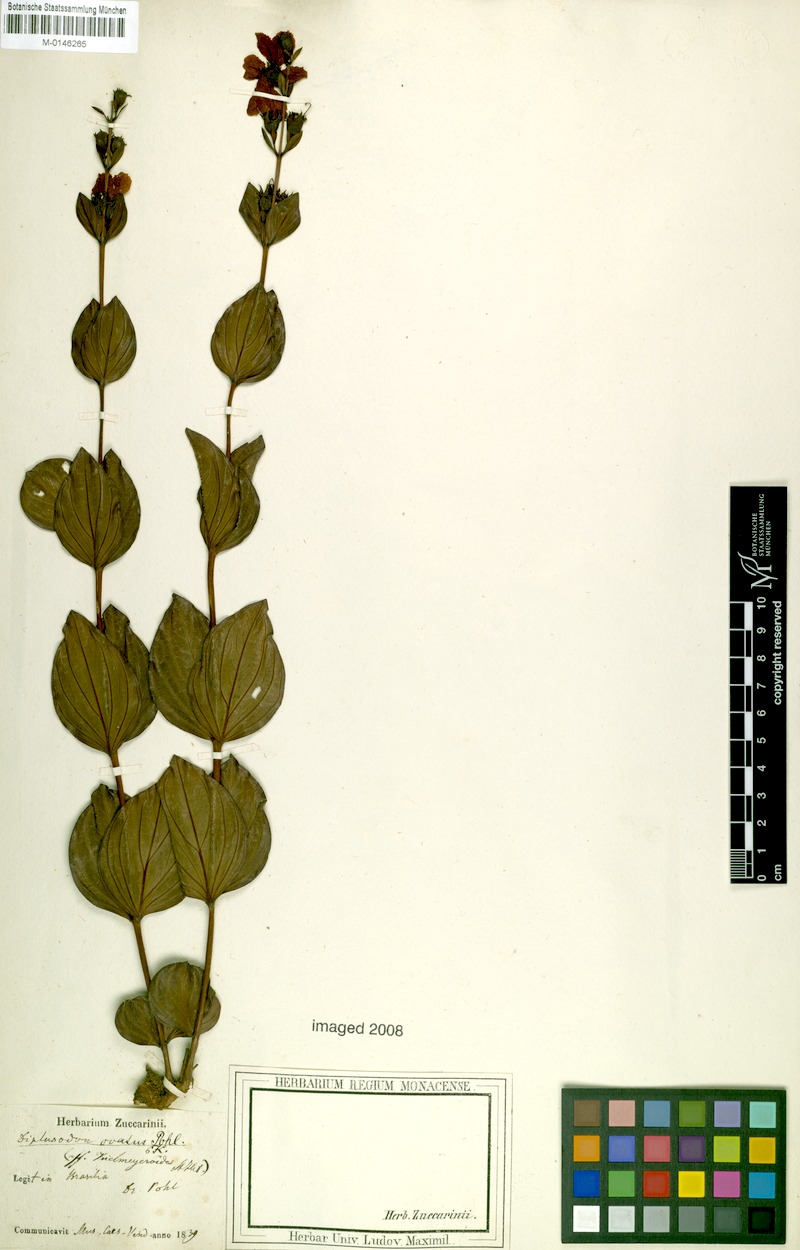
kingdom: Plantae
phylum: Tracheophyta
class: Magnoliopsida
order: Myrtales
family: Lythraceae
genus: Diplusodon
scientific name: Diplusodon ovatus
